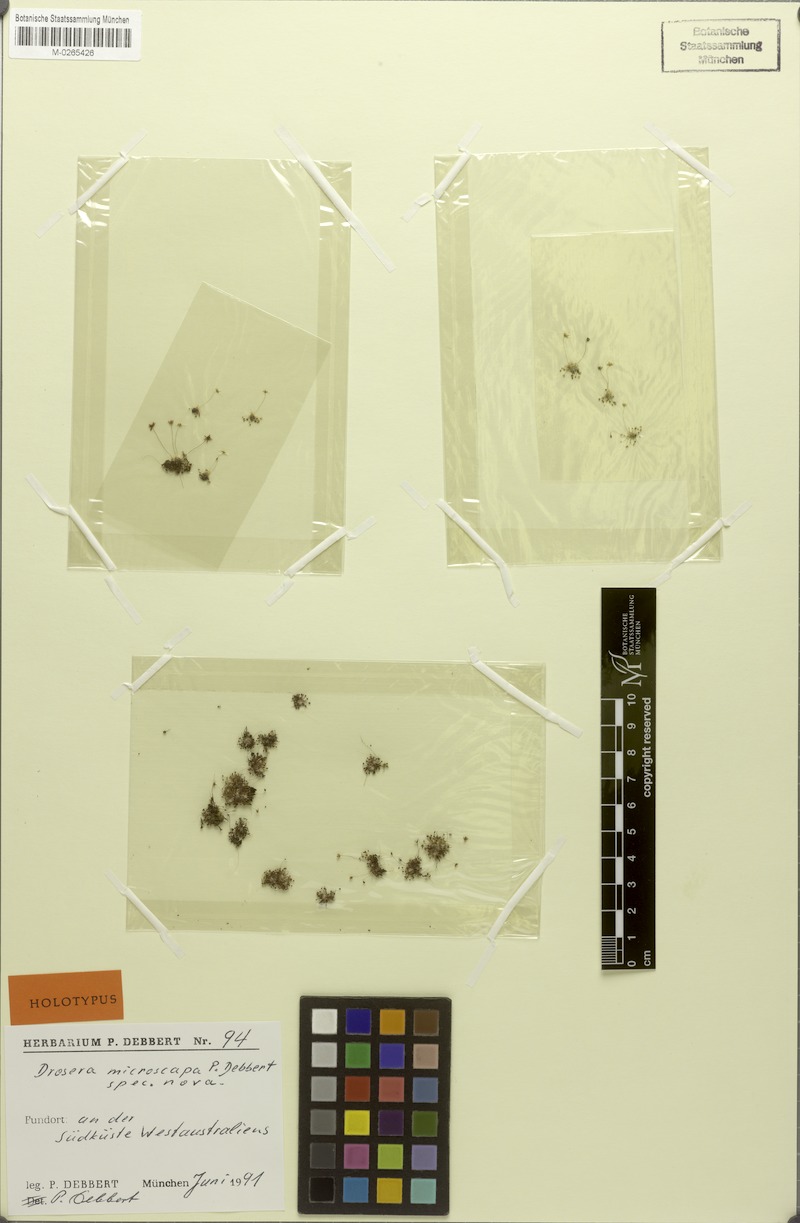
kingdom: Plantae
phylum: Tracheophyta
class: Magnoliopsida
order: Caryophyllales
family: Droseraceae
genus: Drosera
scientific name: Drosera occidentalis
